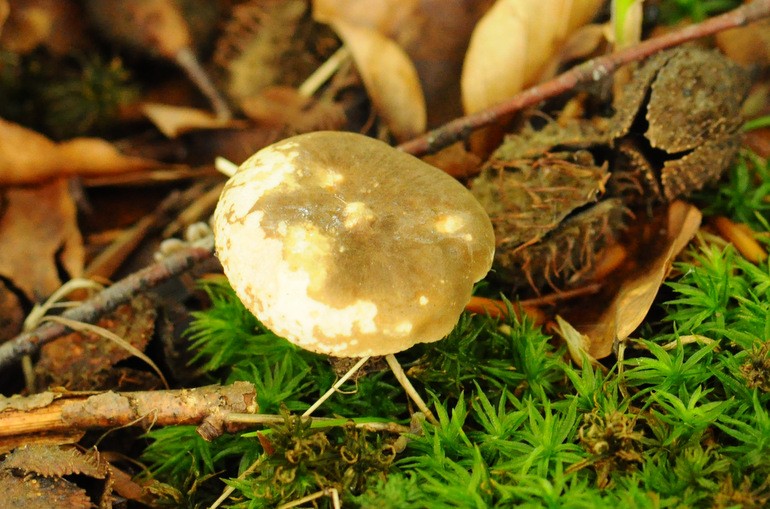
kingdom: Fungi
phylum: Basidiomycota
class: Agaricomycetes
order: Russulales
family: Russulaceae
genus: Lactarius
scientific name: Lactarius ruginosus
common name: gråbrun mælkehat
